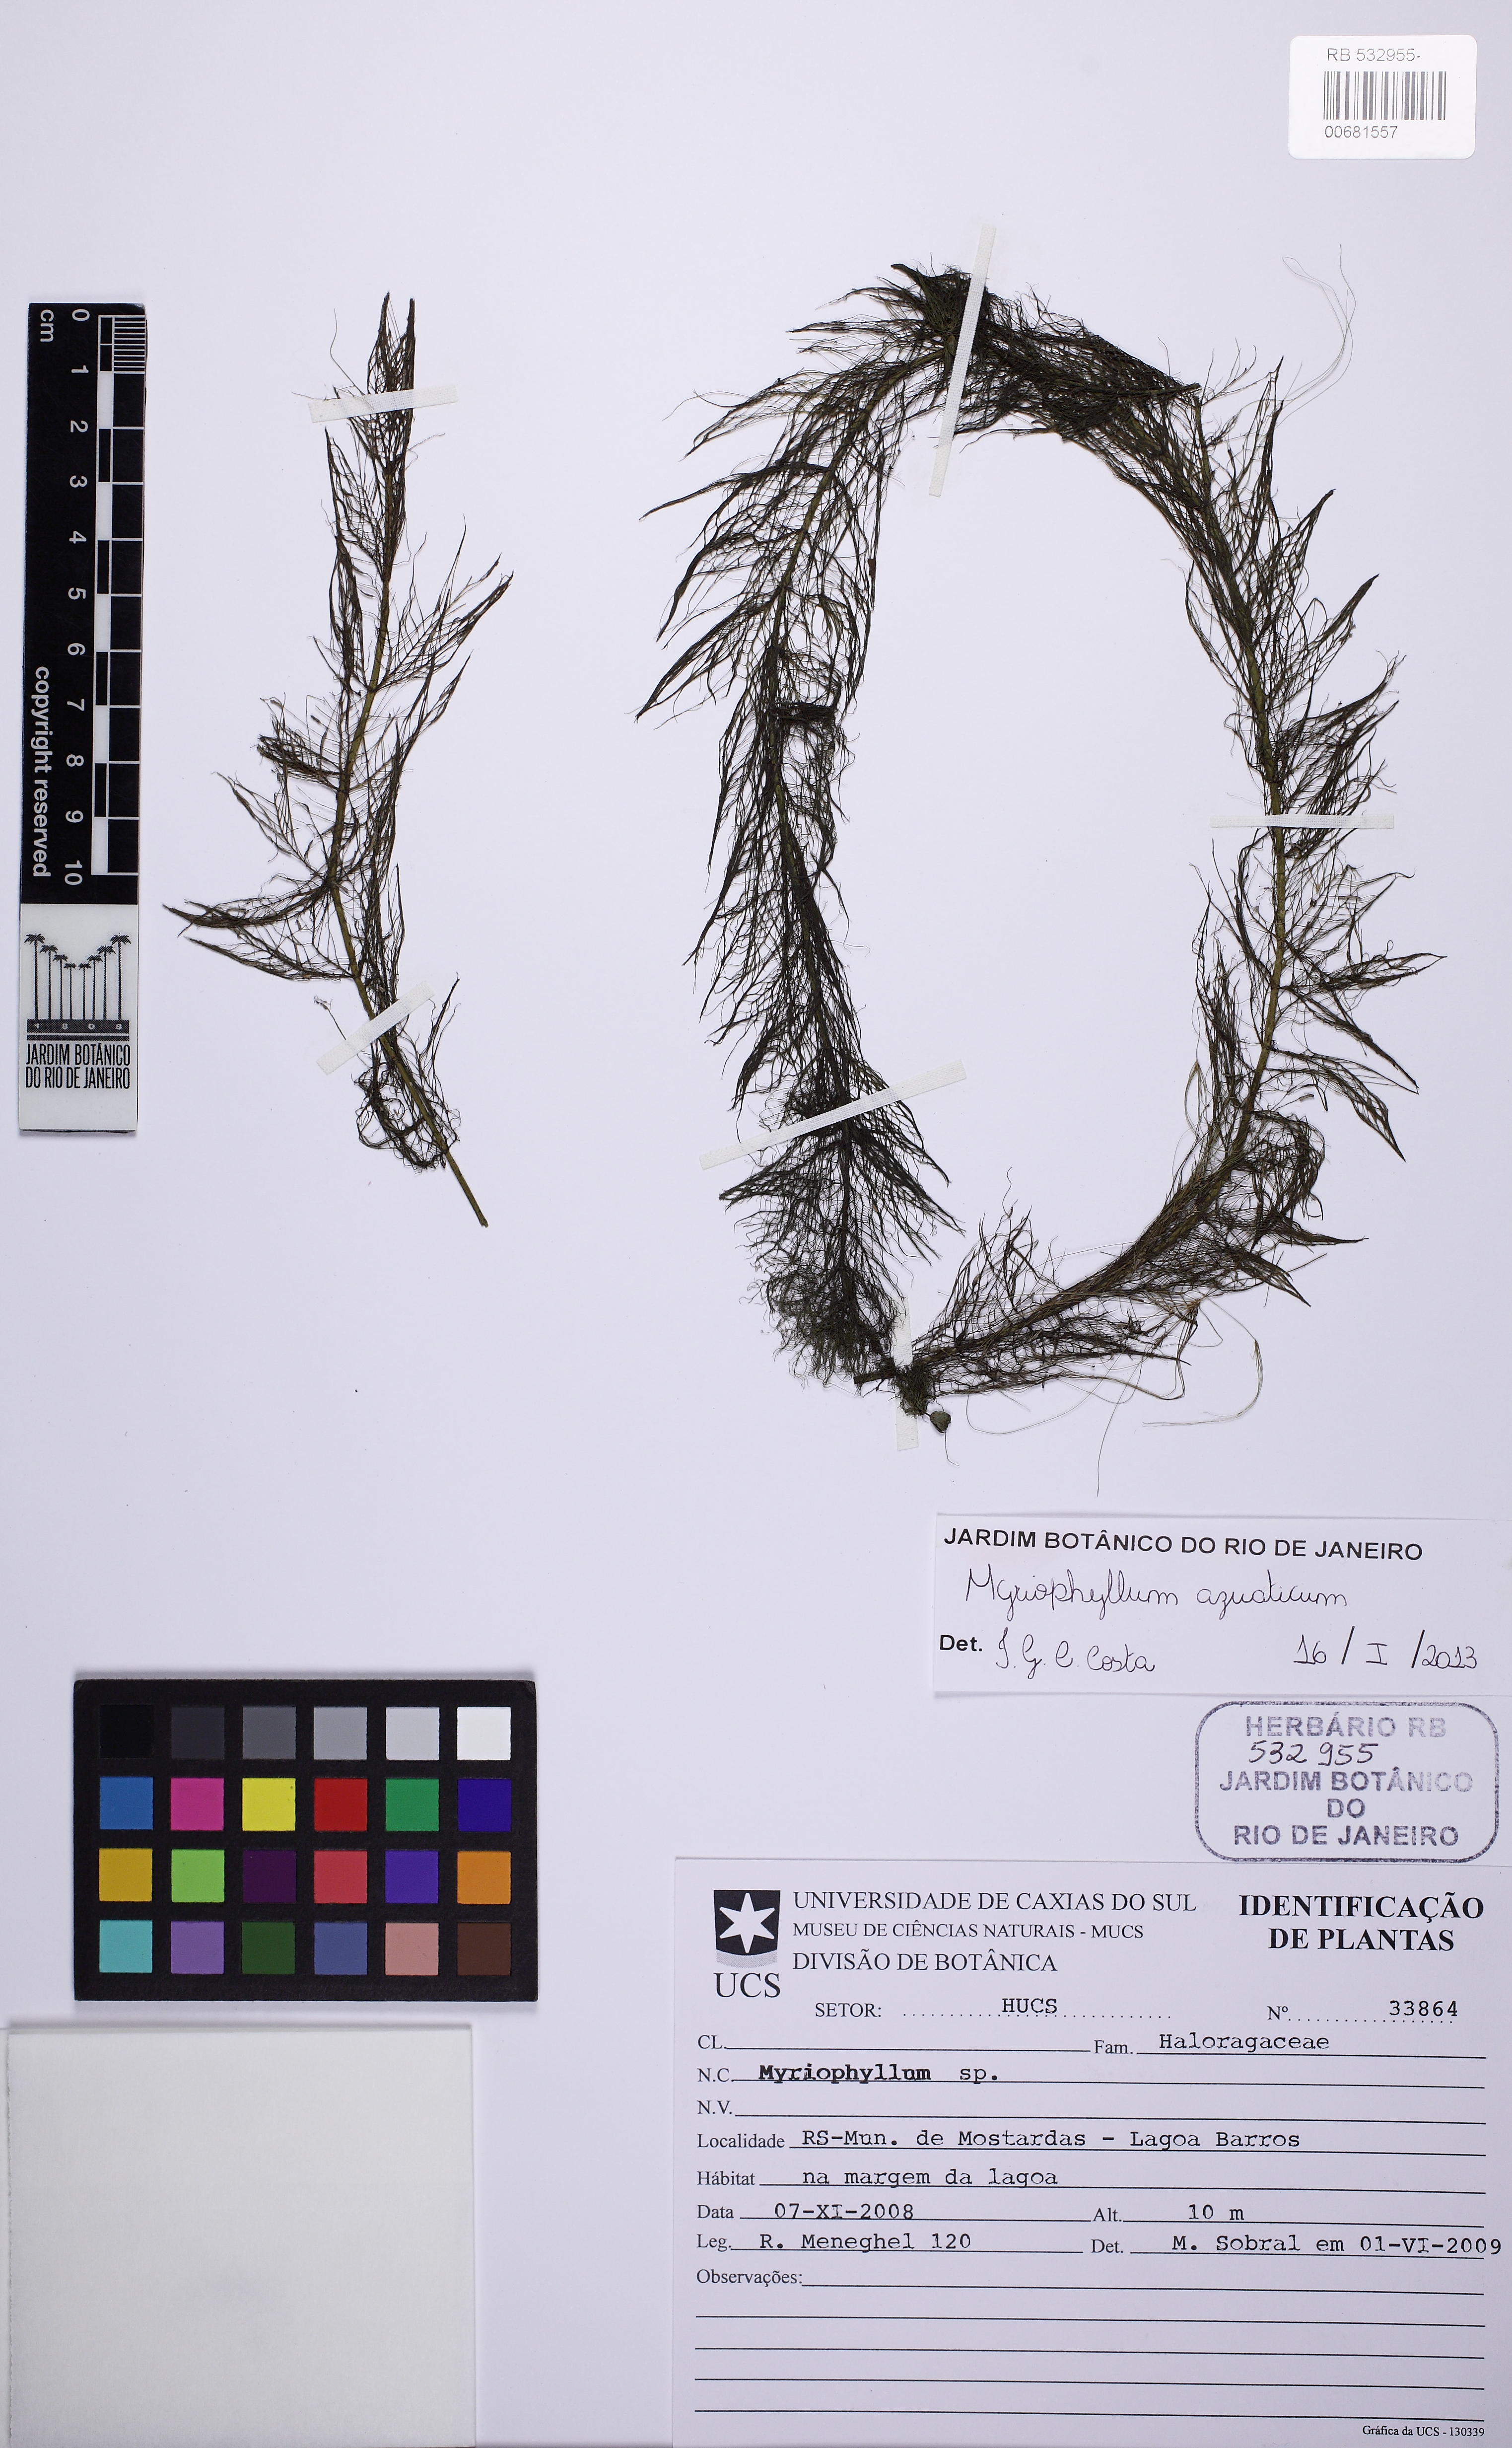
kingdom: Plantae
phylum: Tracheophyta
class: Magnoliopsida
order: Saxifragales
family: Haloragaceae
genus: Myriophyllum
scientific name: Myriophyllum aquaticum
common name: Parrot's feather
